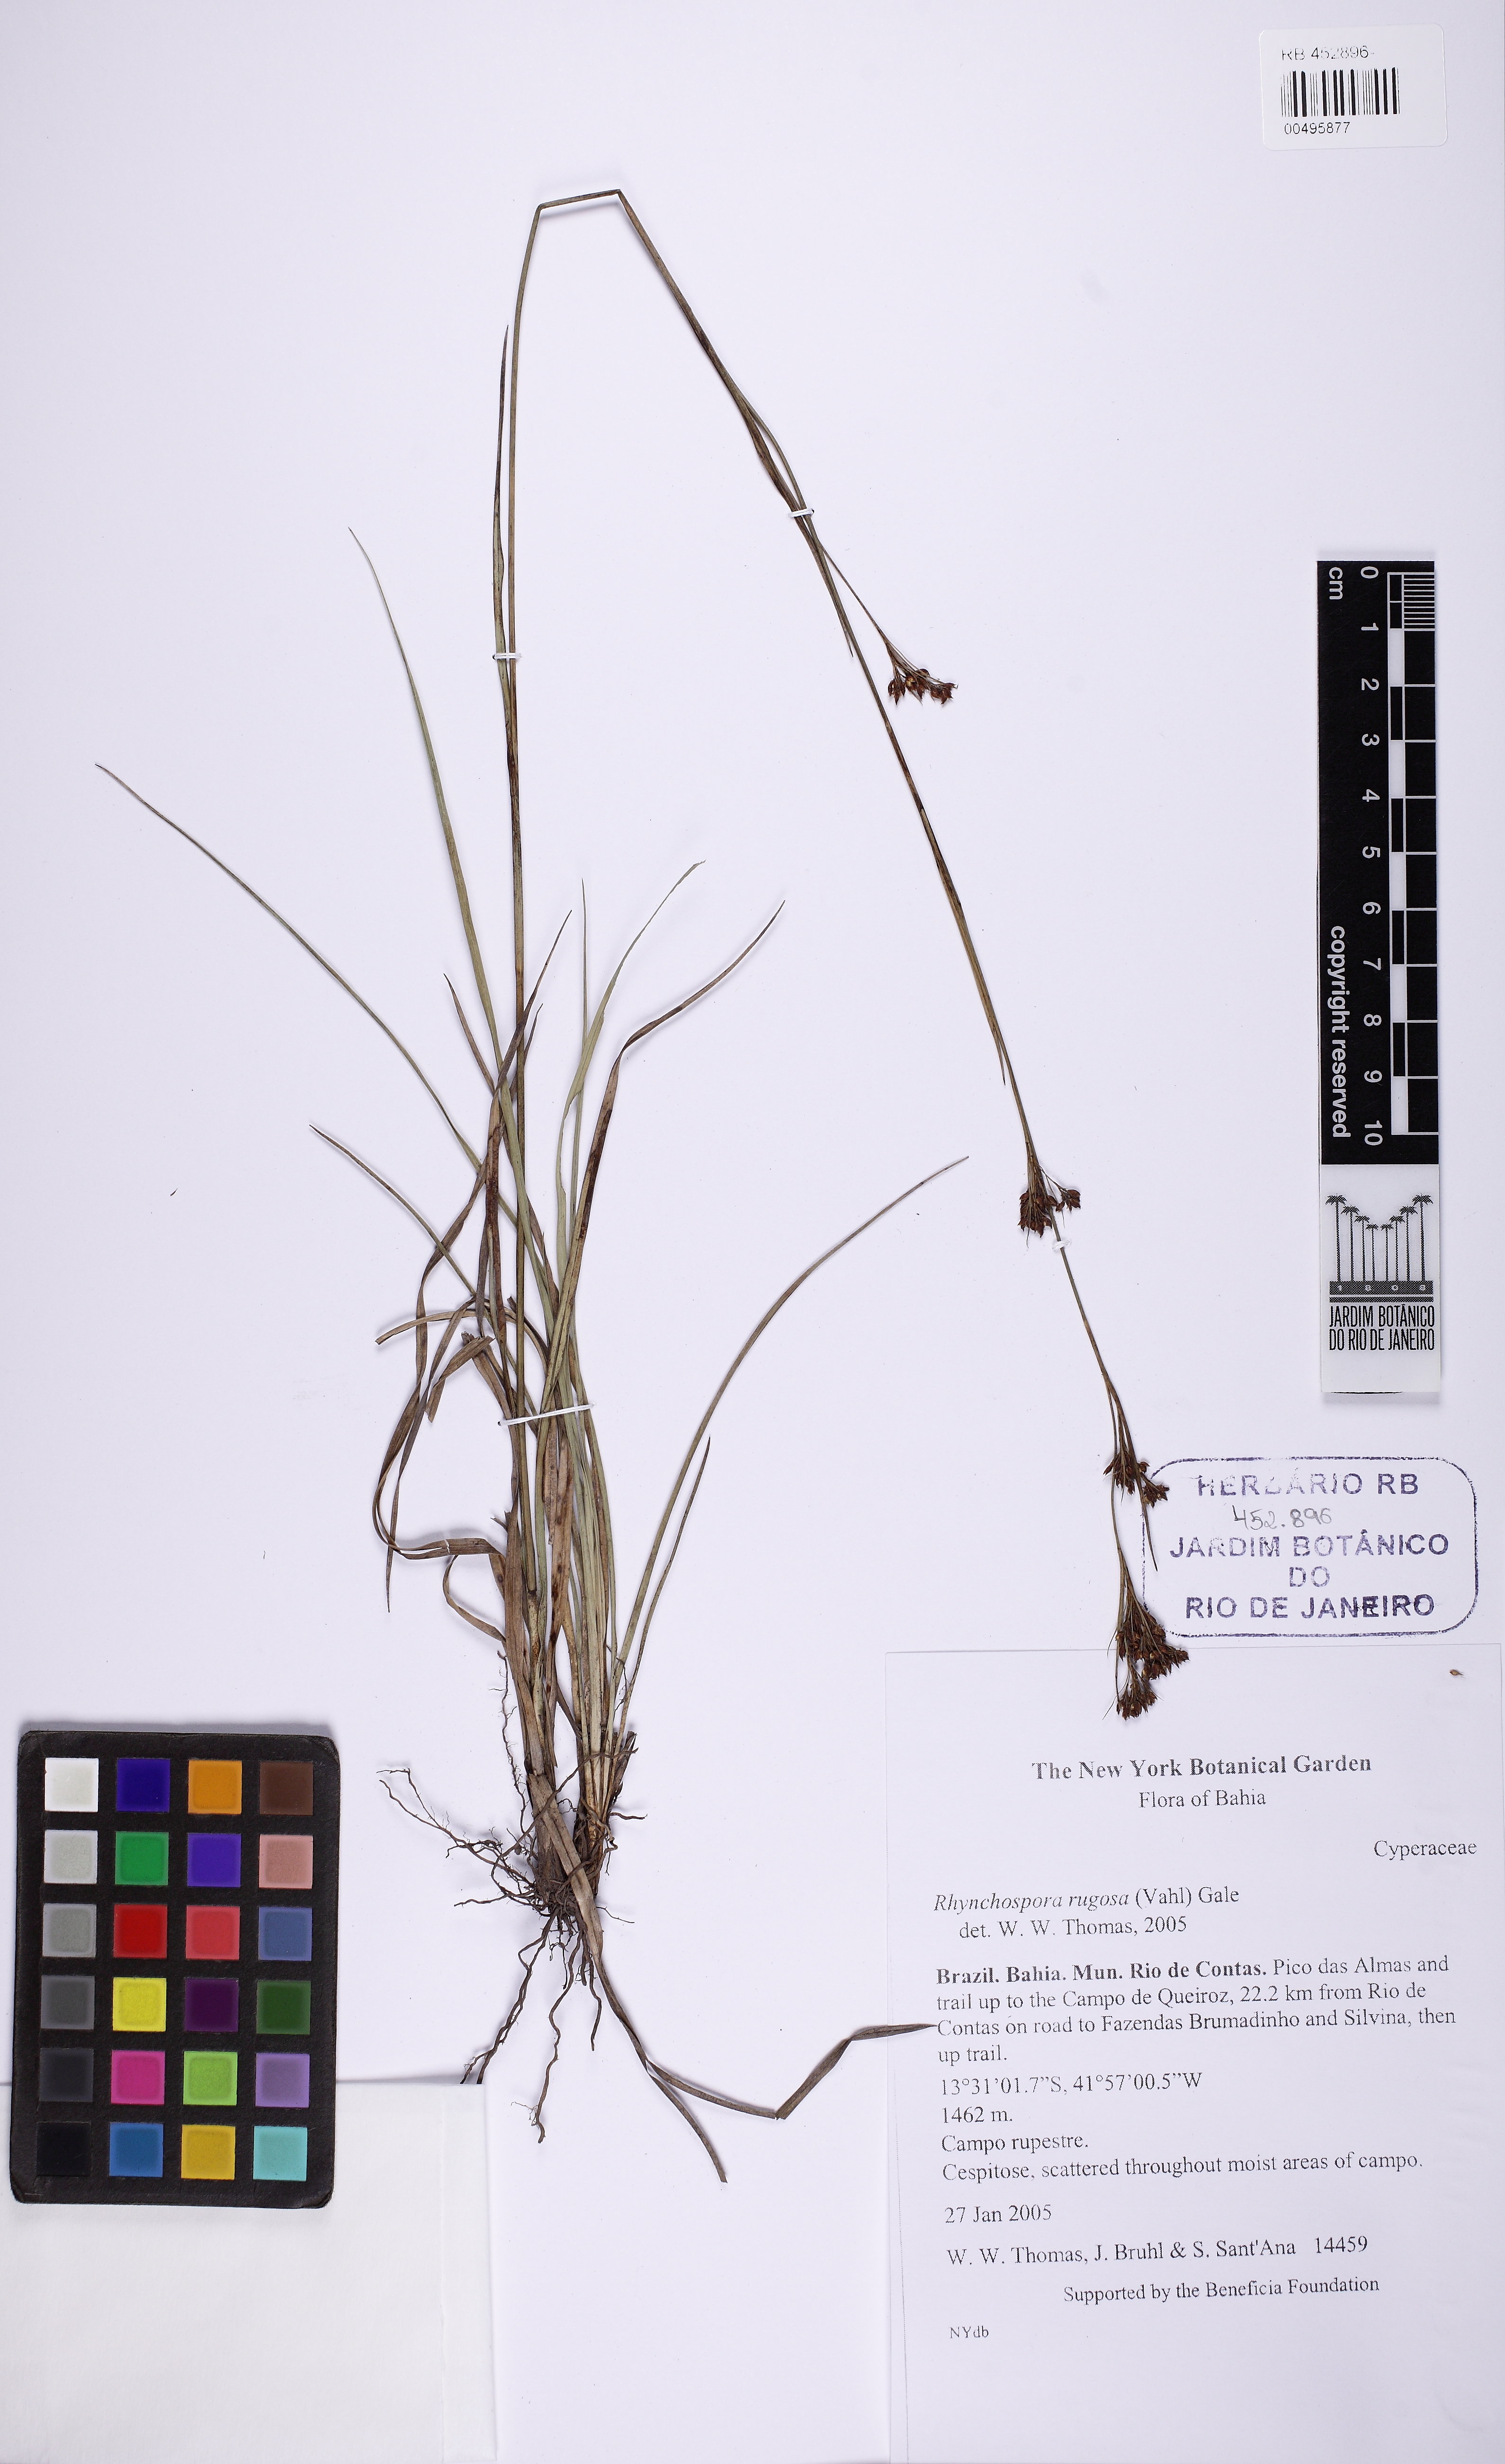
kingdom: Plantae
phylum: Tracheophyta
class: Liliopsida
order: Poales
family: Cyperaceae
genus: Rhynchospora
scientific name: Rhynchospora rugosa
